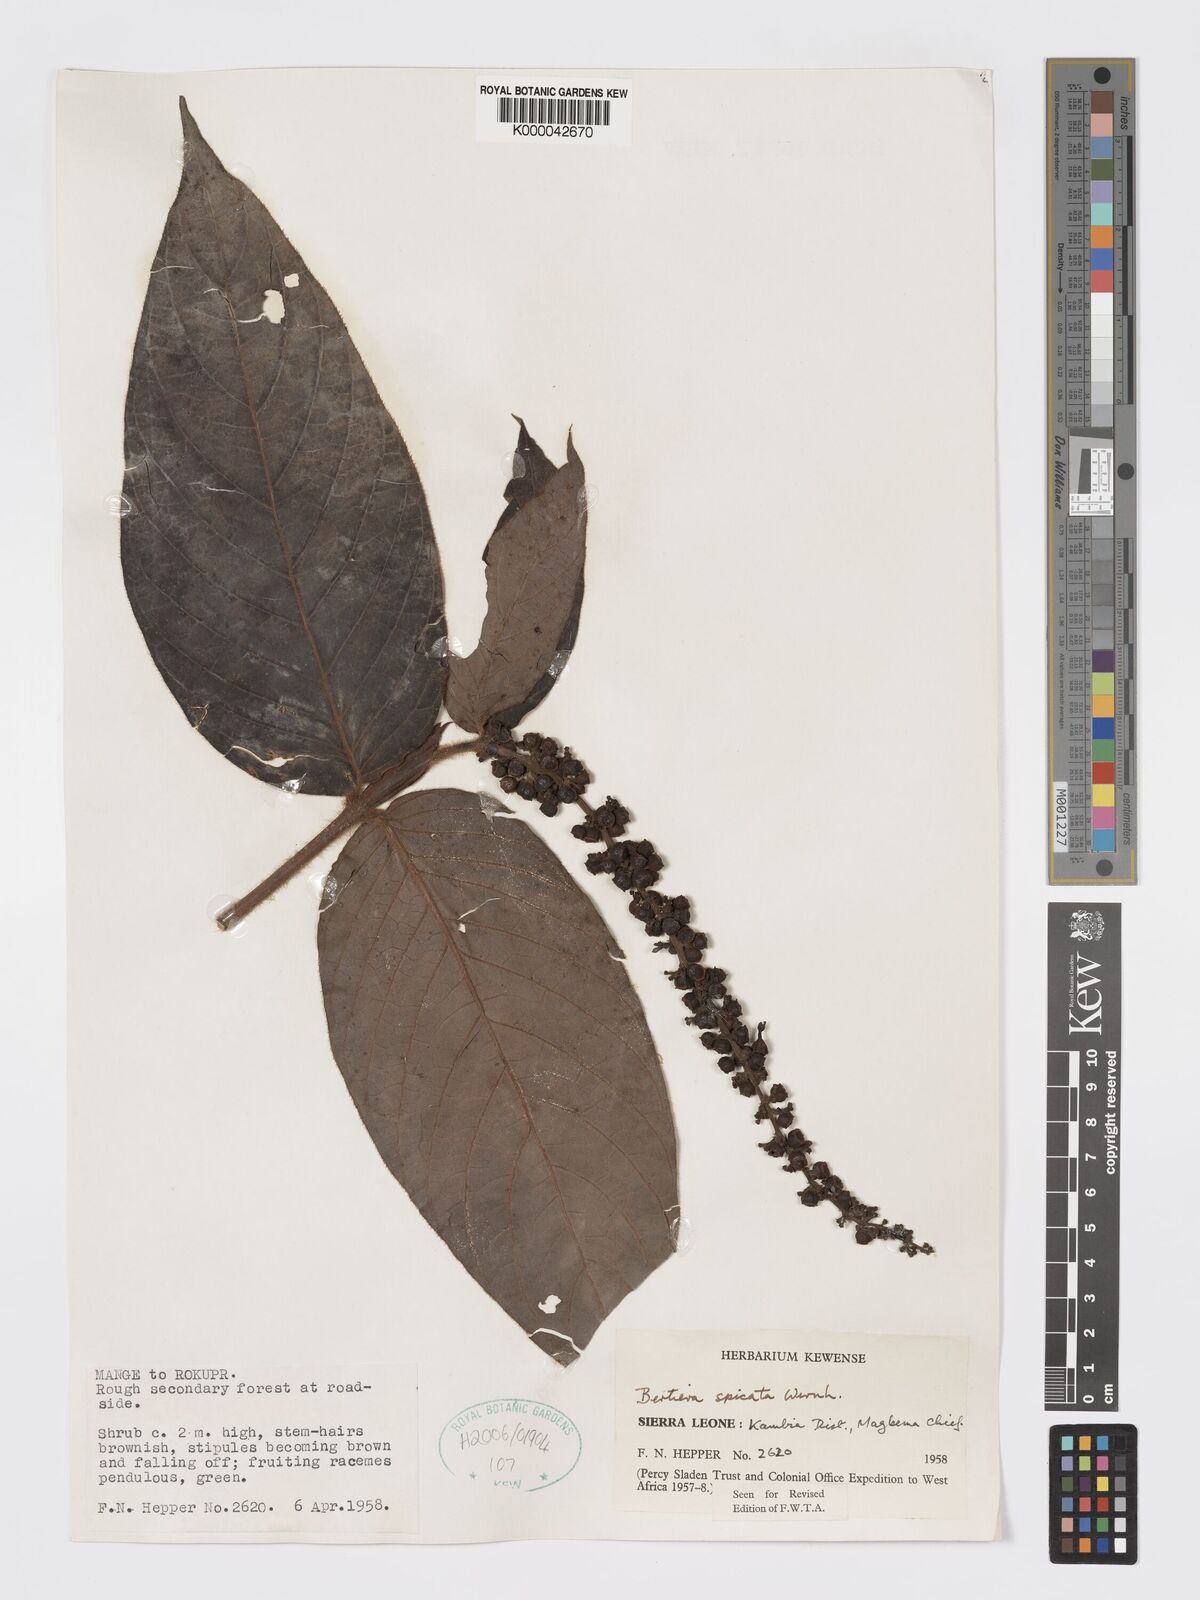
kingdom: Plantae
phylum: Tracheophyta
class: Magnoliopsida
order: Gentianales
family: Rubiaceae
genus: Bertiera
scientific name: Bertiera
